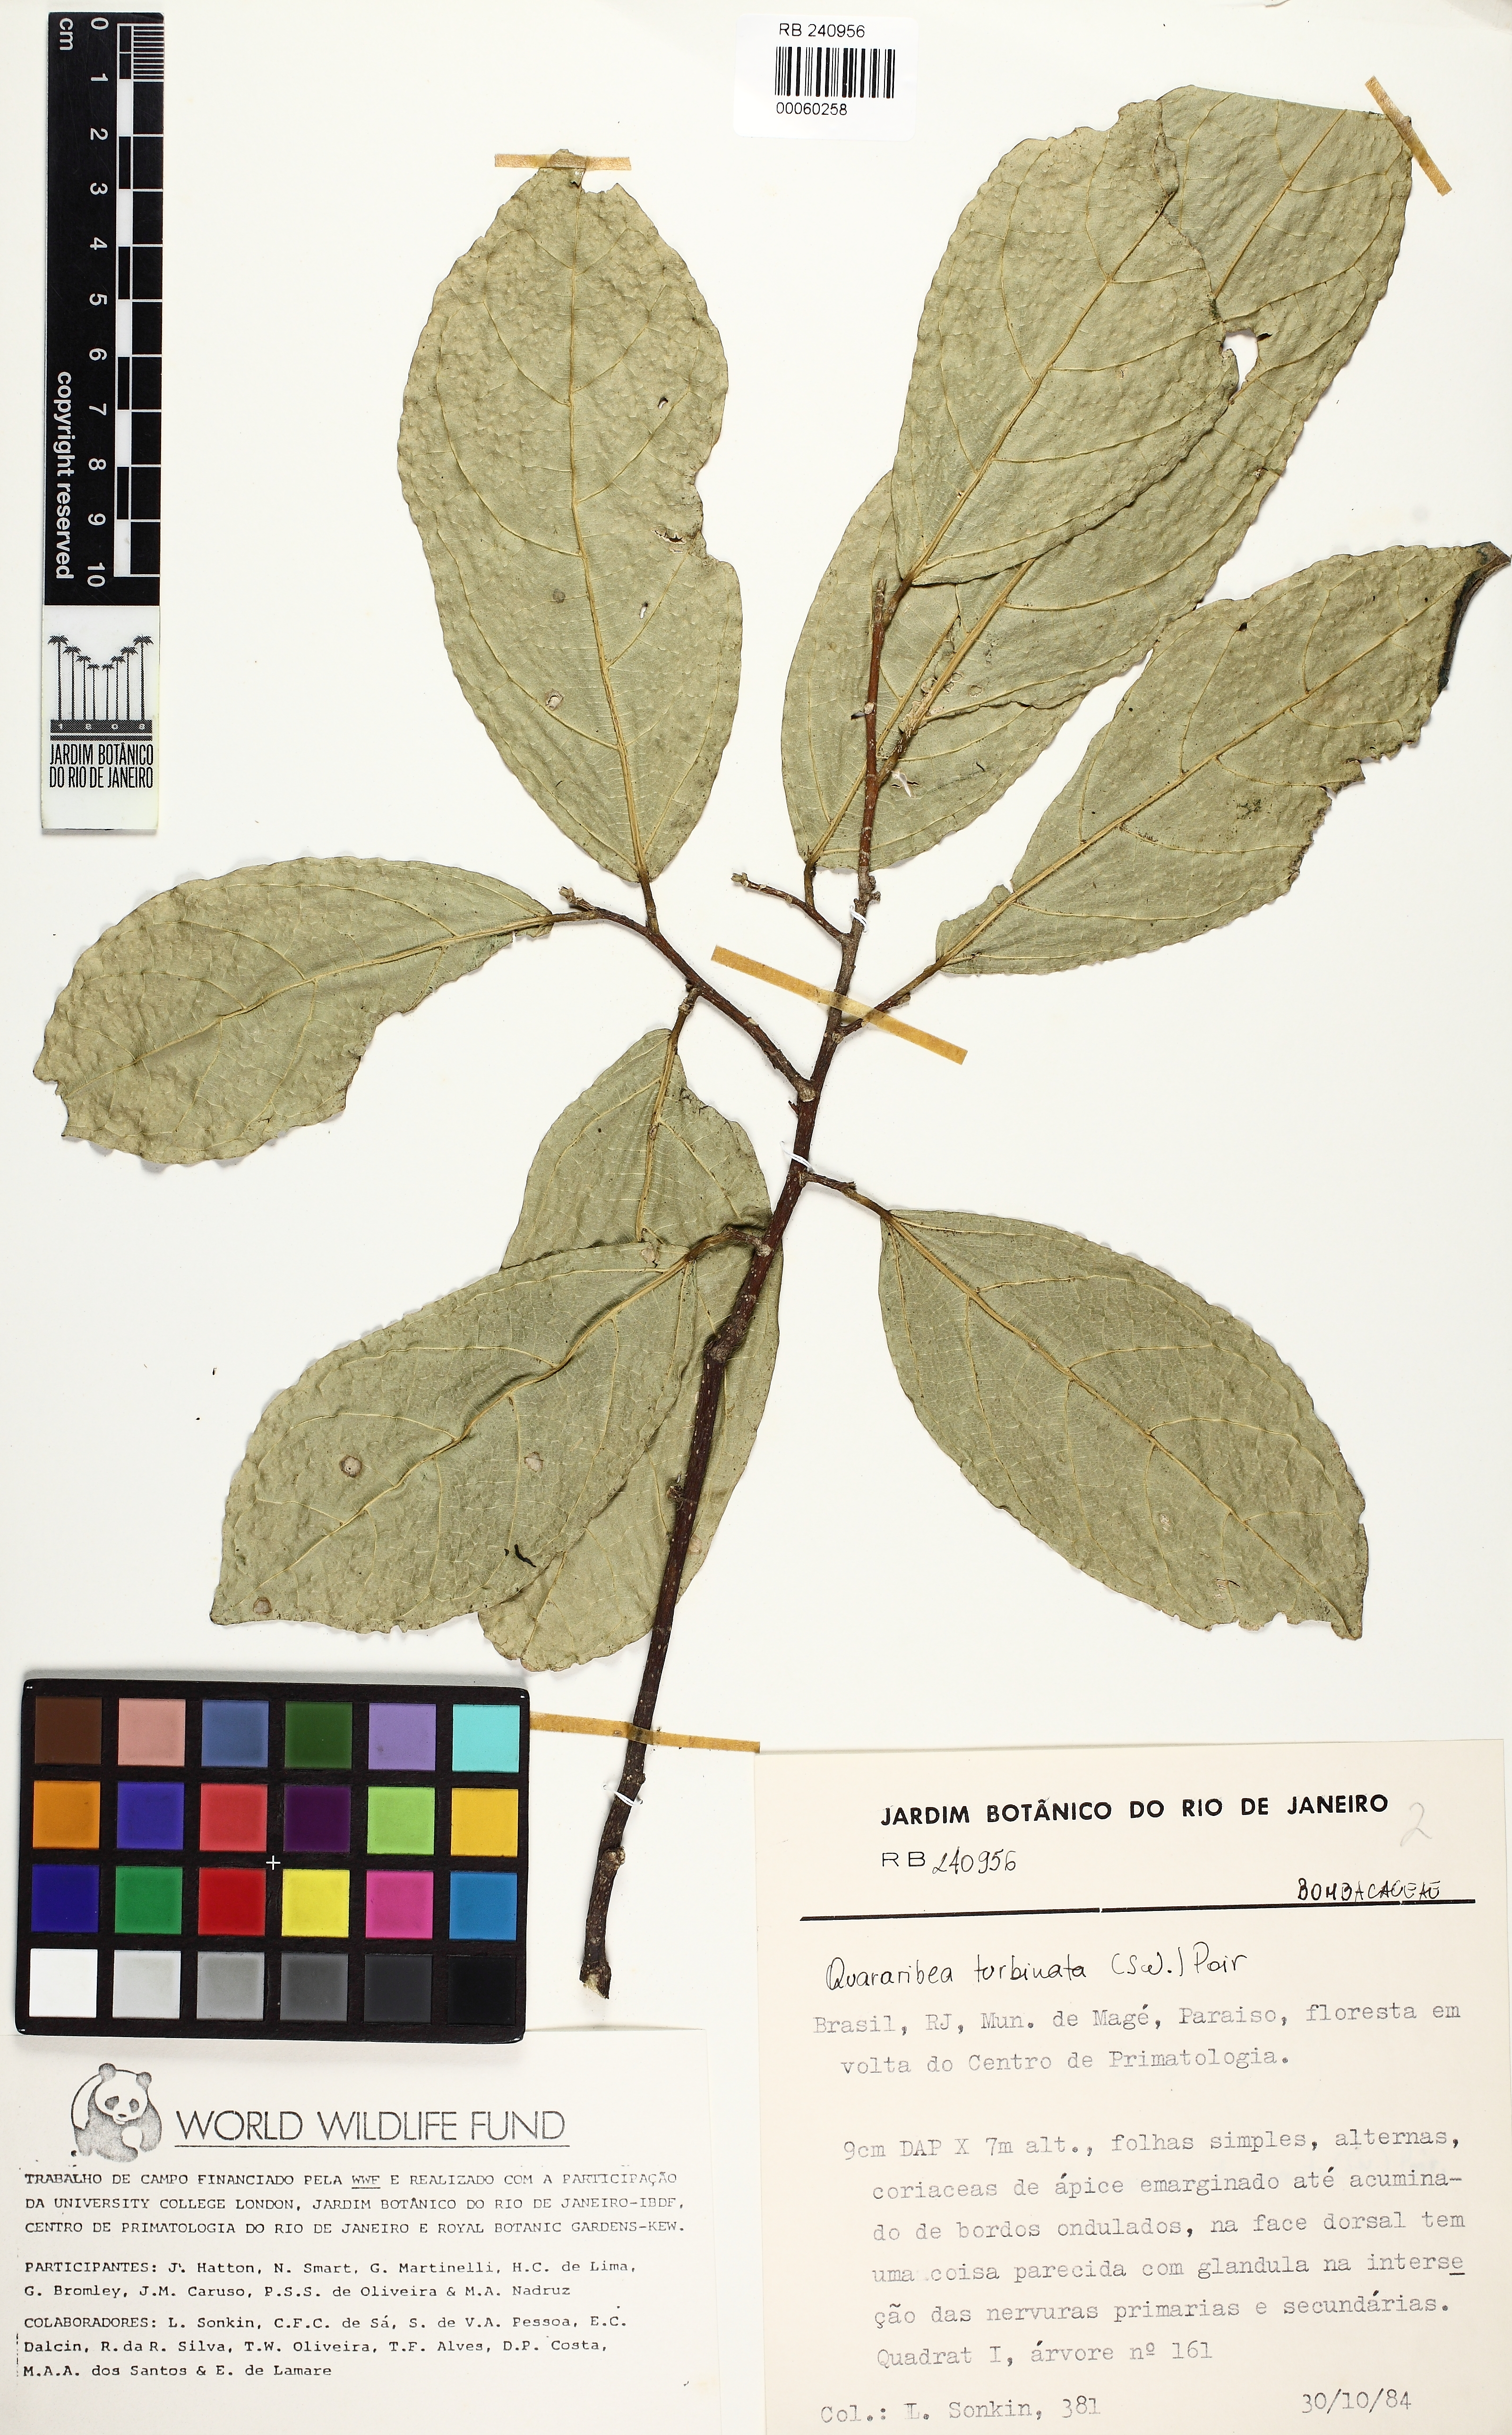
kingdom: Plantae
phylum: Tracheophyta
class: Magnoliopsida
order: Malvales
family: Malvaceae
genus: Quararibea
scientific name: Quararibea turbinata
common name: Swizzlestick-tree
